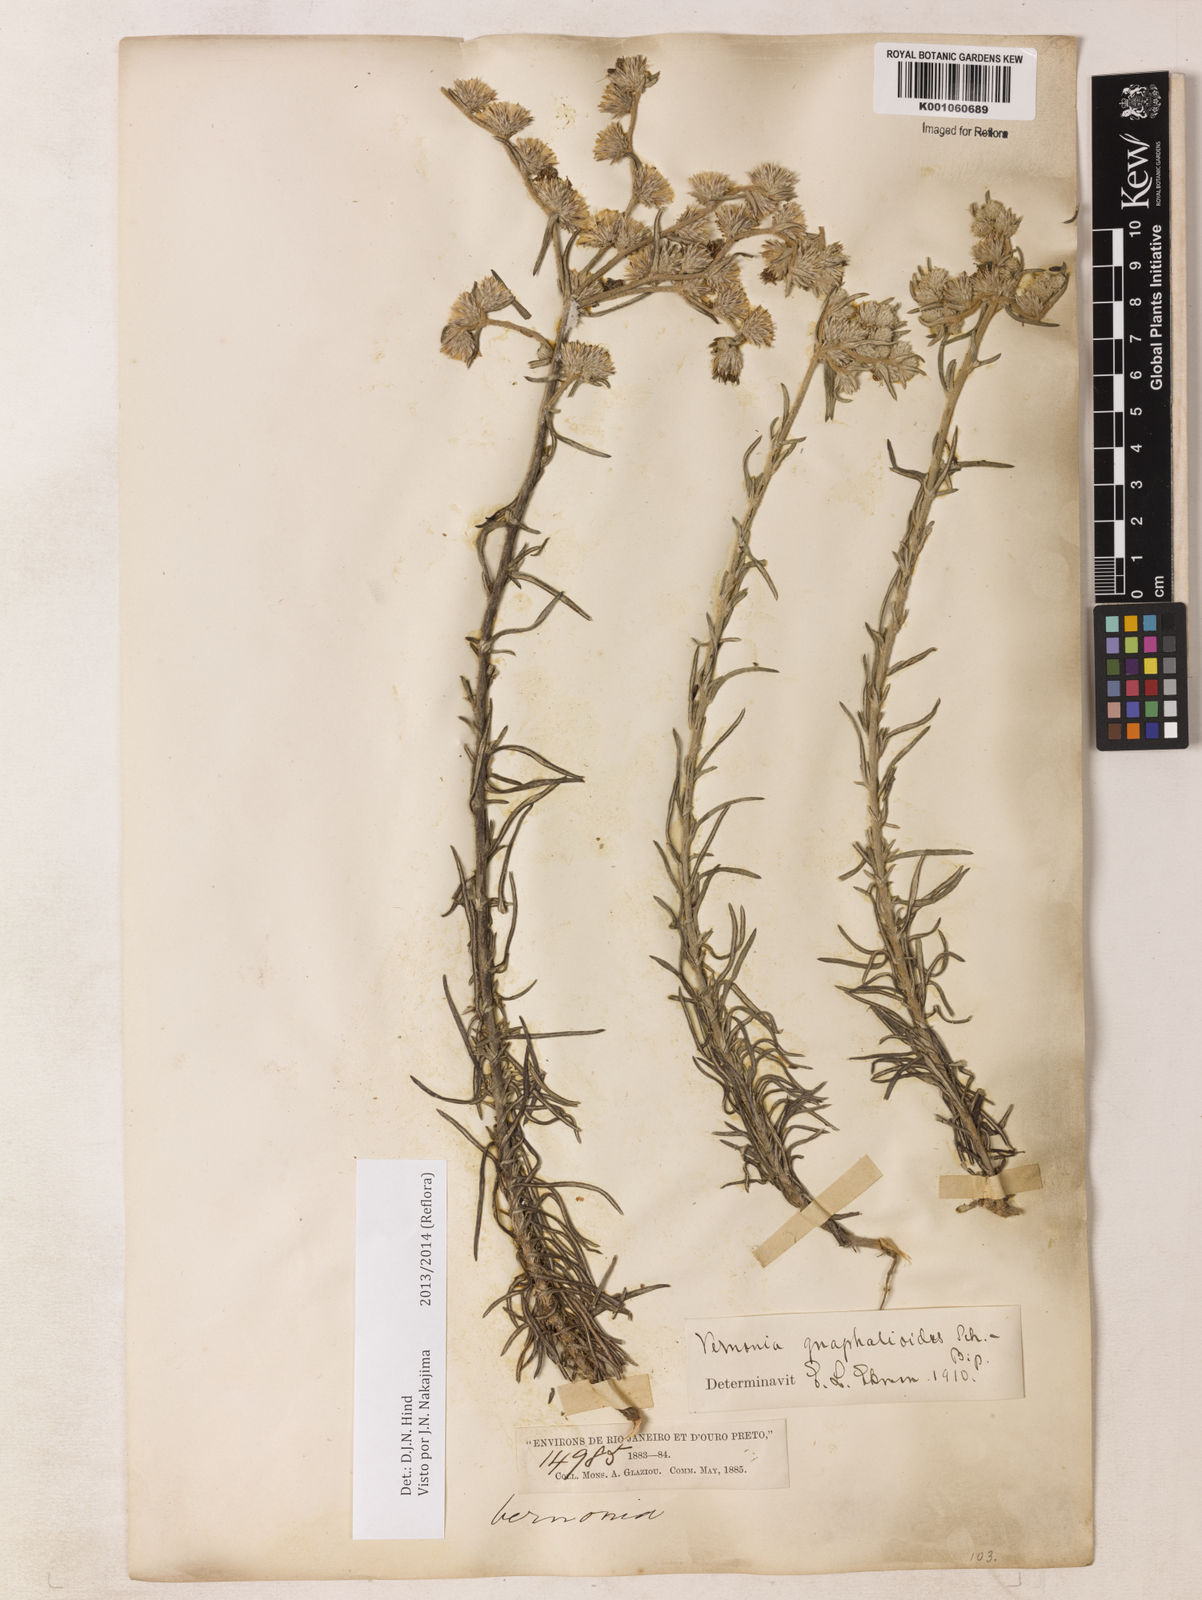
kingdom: Plantae
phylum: Tracheophyta
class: Magnoliopsida
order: Asterales
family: Asteraceae
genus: Lepidaploa
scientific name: Lepidaploa gnaphalioides
